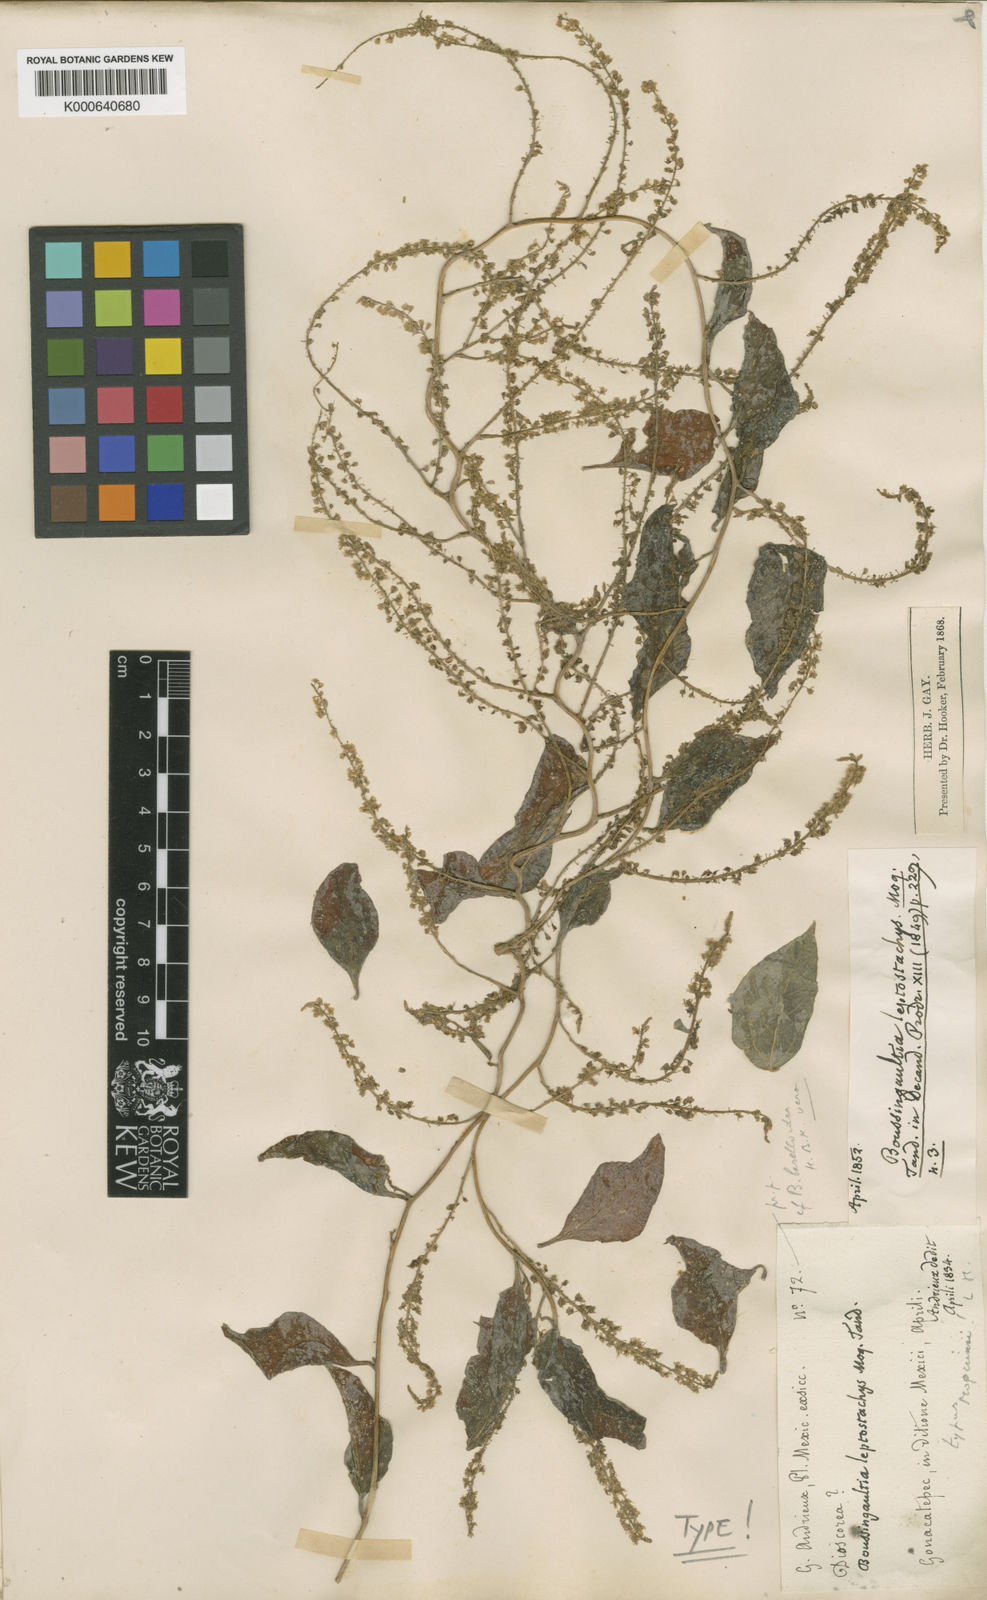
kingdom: Plantae
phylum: Tracheophyta
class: Magnoliopsida
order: Caryophyllales
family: Basellaceae
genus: Anredera
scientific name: Anredera vesicaria
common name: Sacasile
